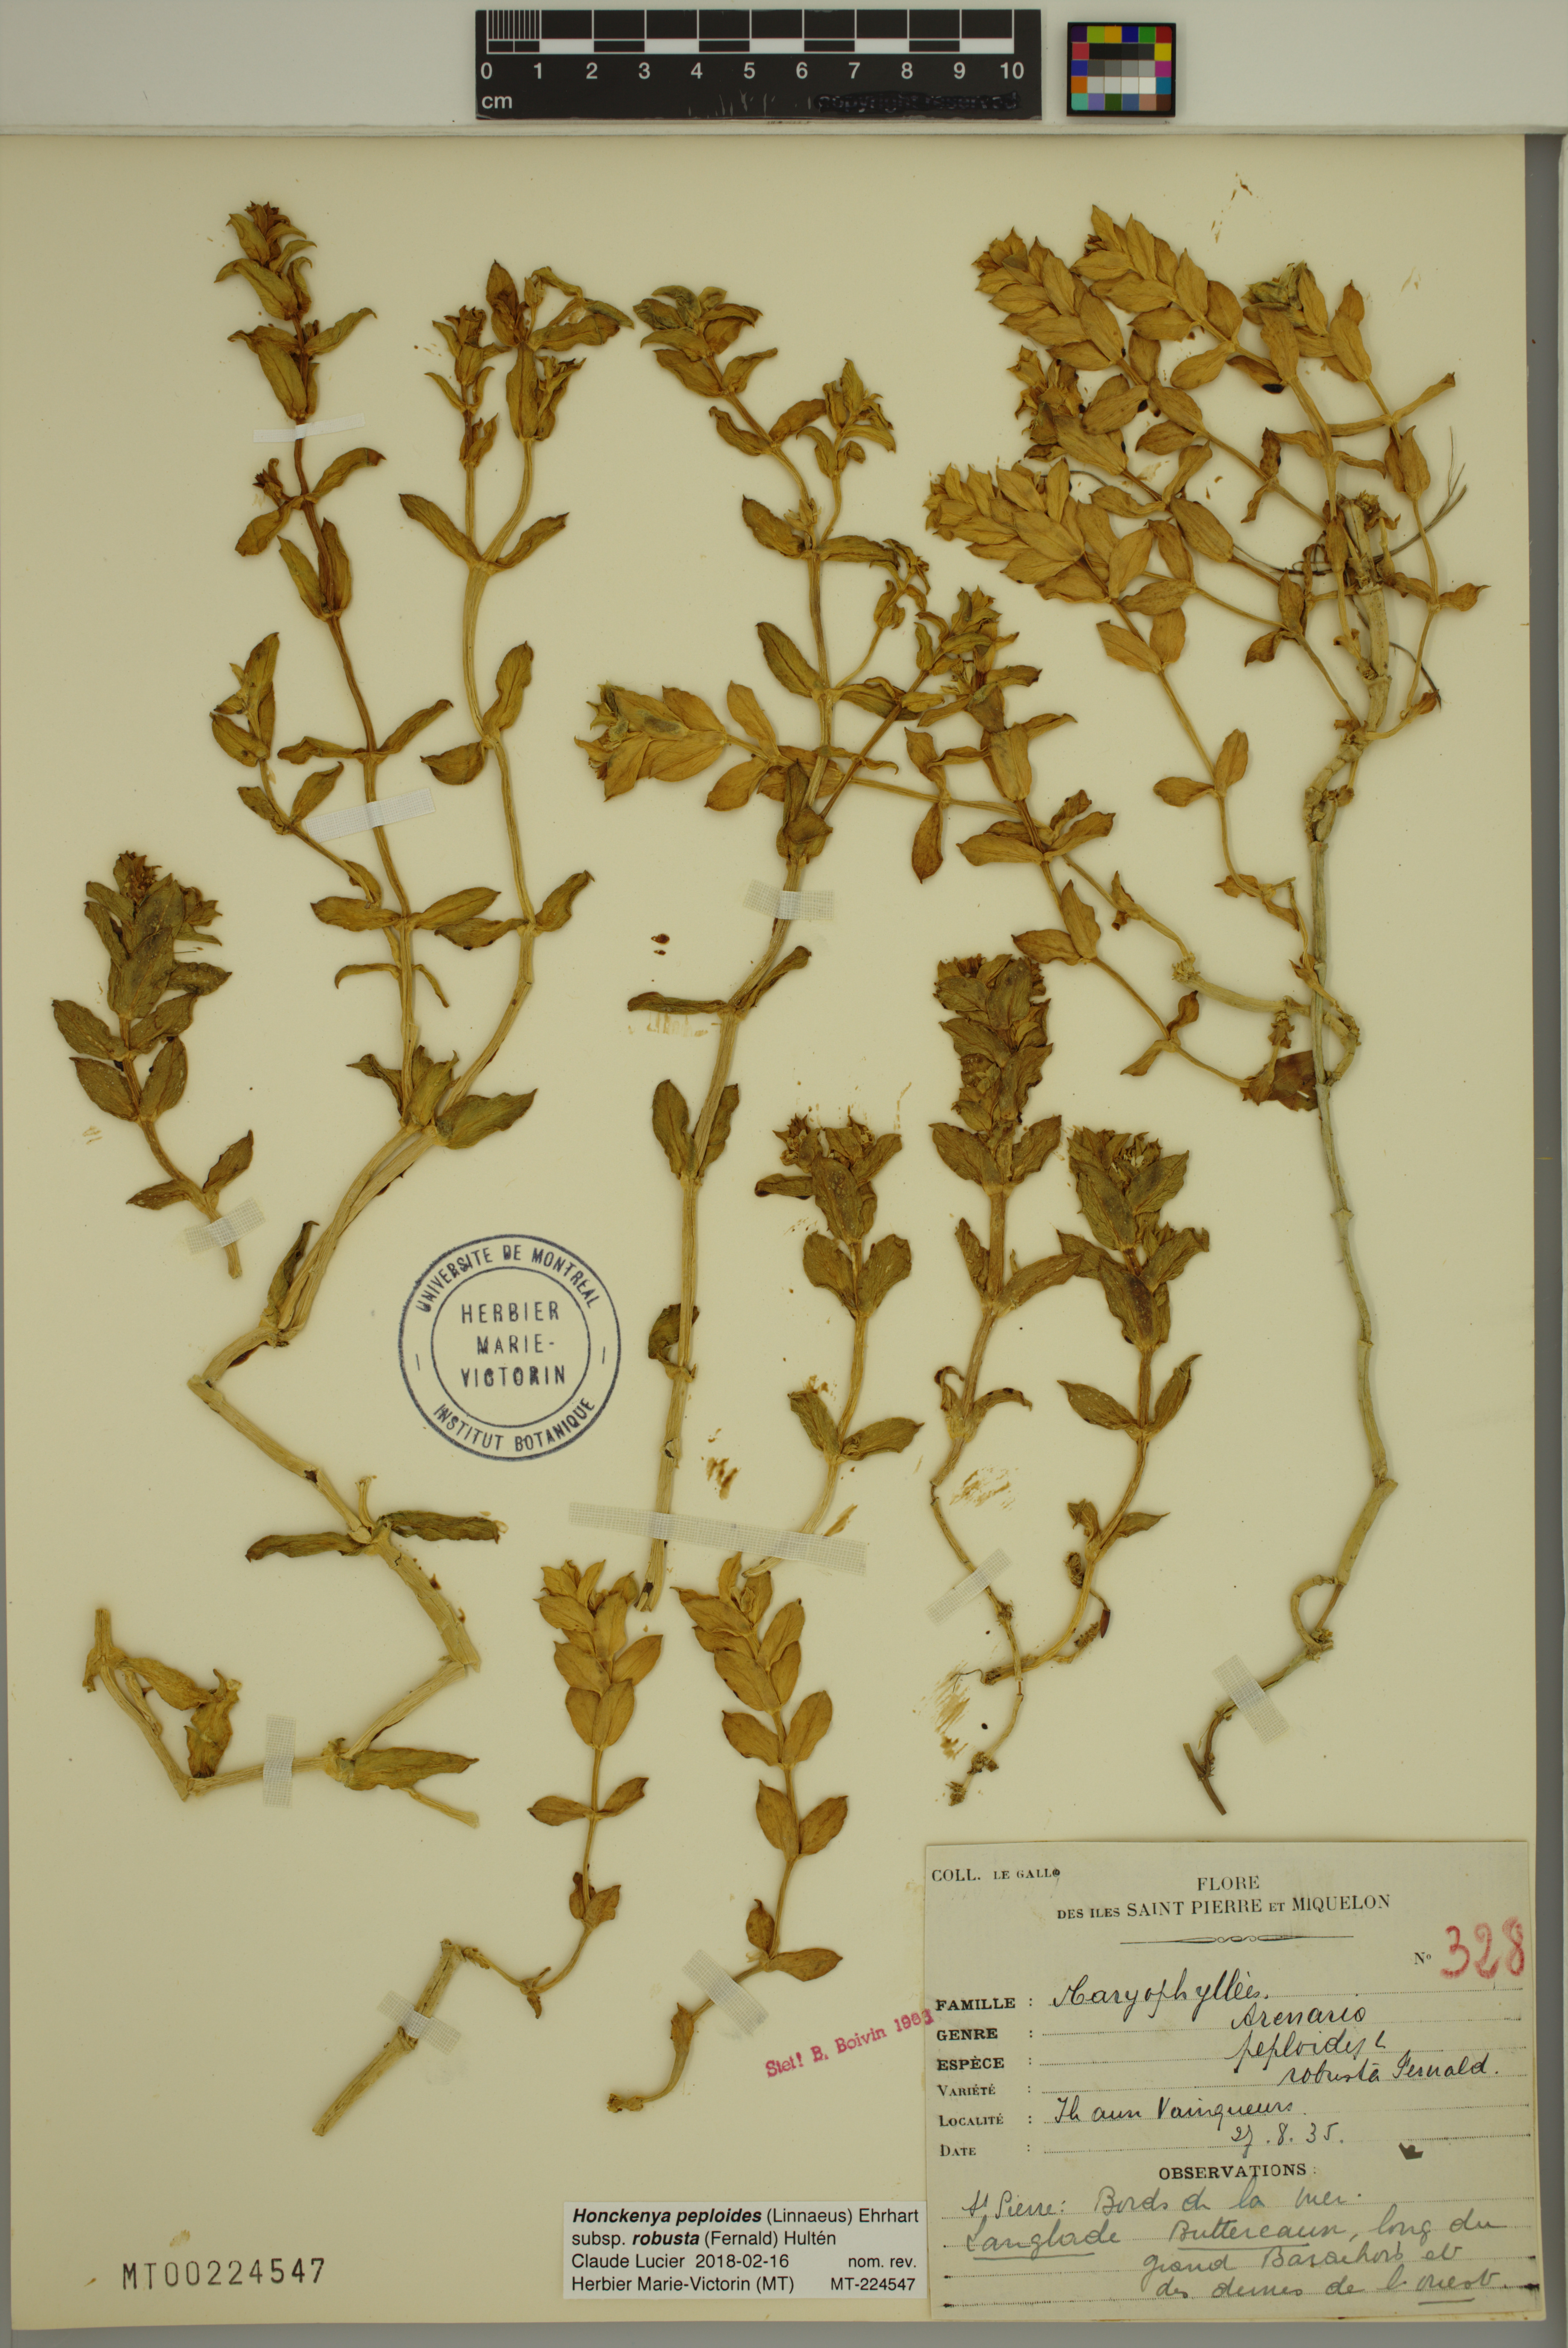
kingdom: Plantae
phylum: Tracheophyta
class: Magnoliopsida
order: Caryophyllales
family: Caryophyllaceae
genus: Honckenya
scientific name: Honckenya peploides
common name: Sea sandwort
